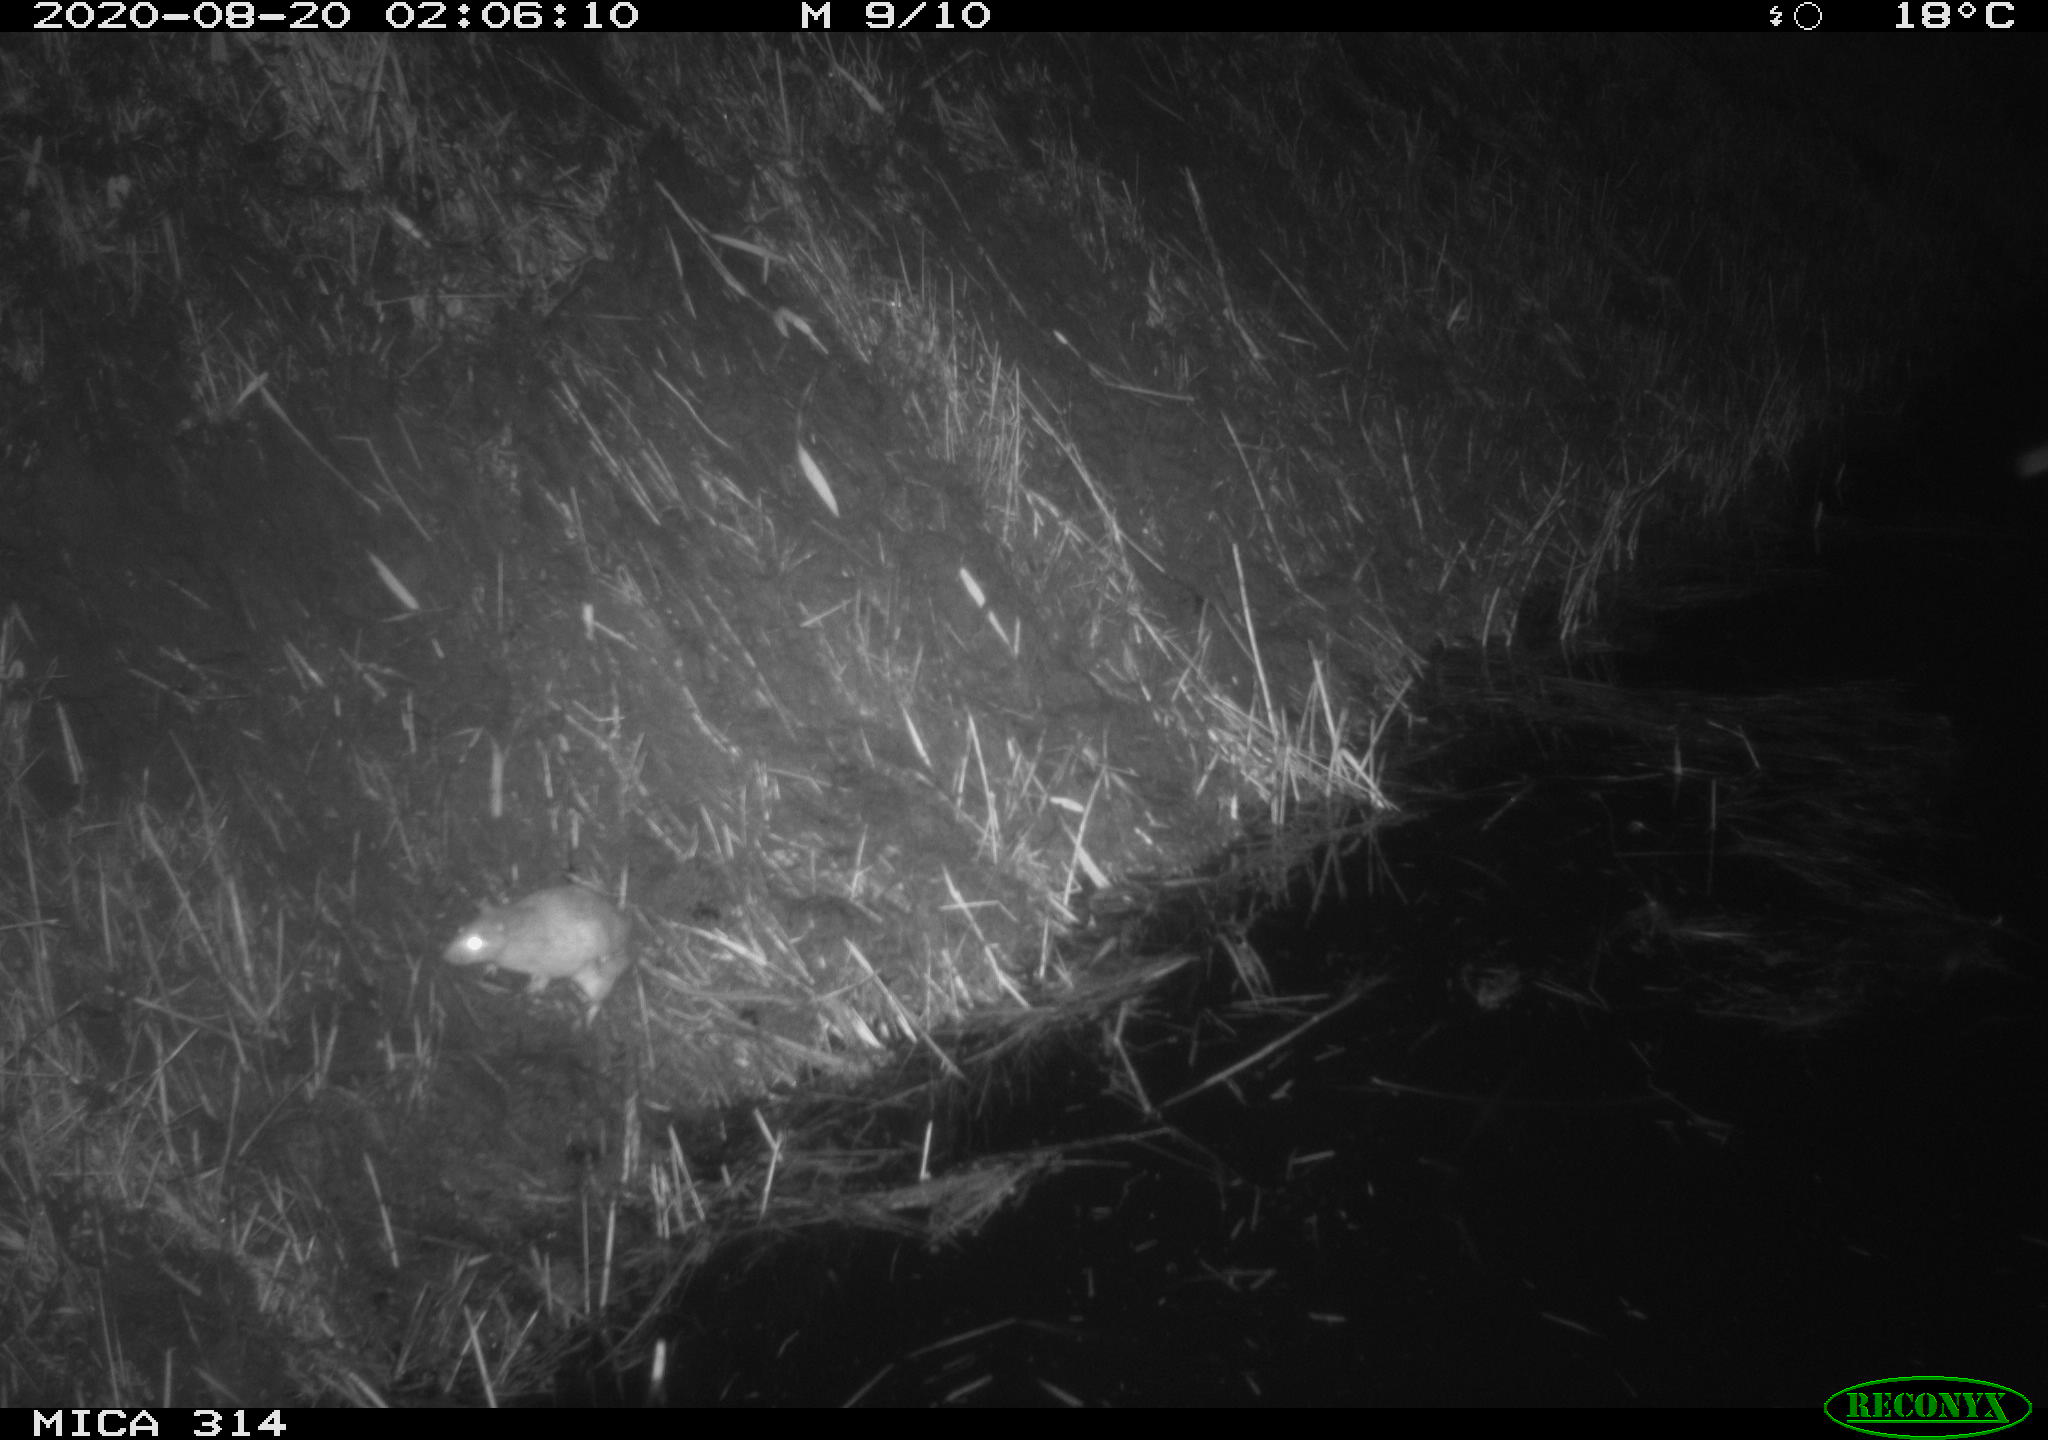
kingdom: Animalia
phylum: Chordata
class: Mammalia
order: Rodentia
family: Muridae
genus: Rattus
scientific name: Rattus norvegicus
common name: Brown rat
